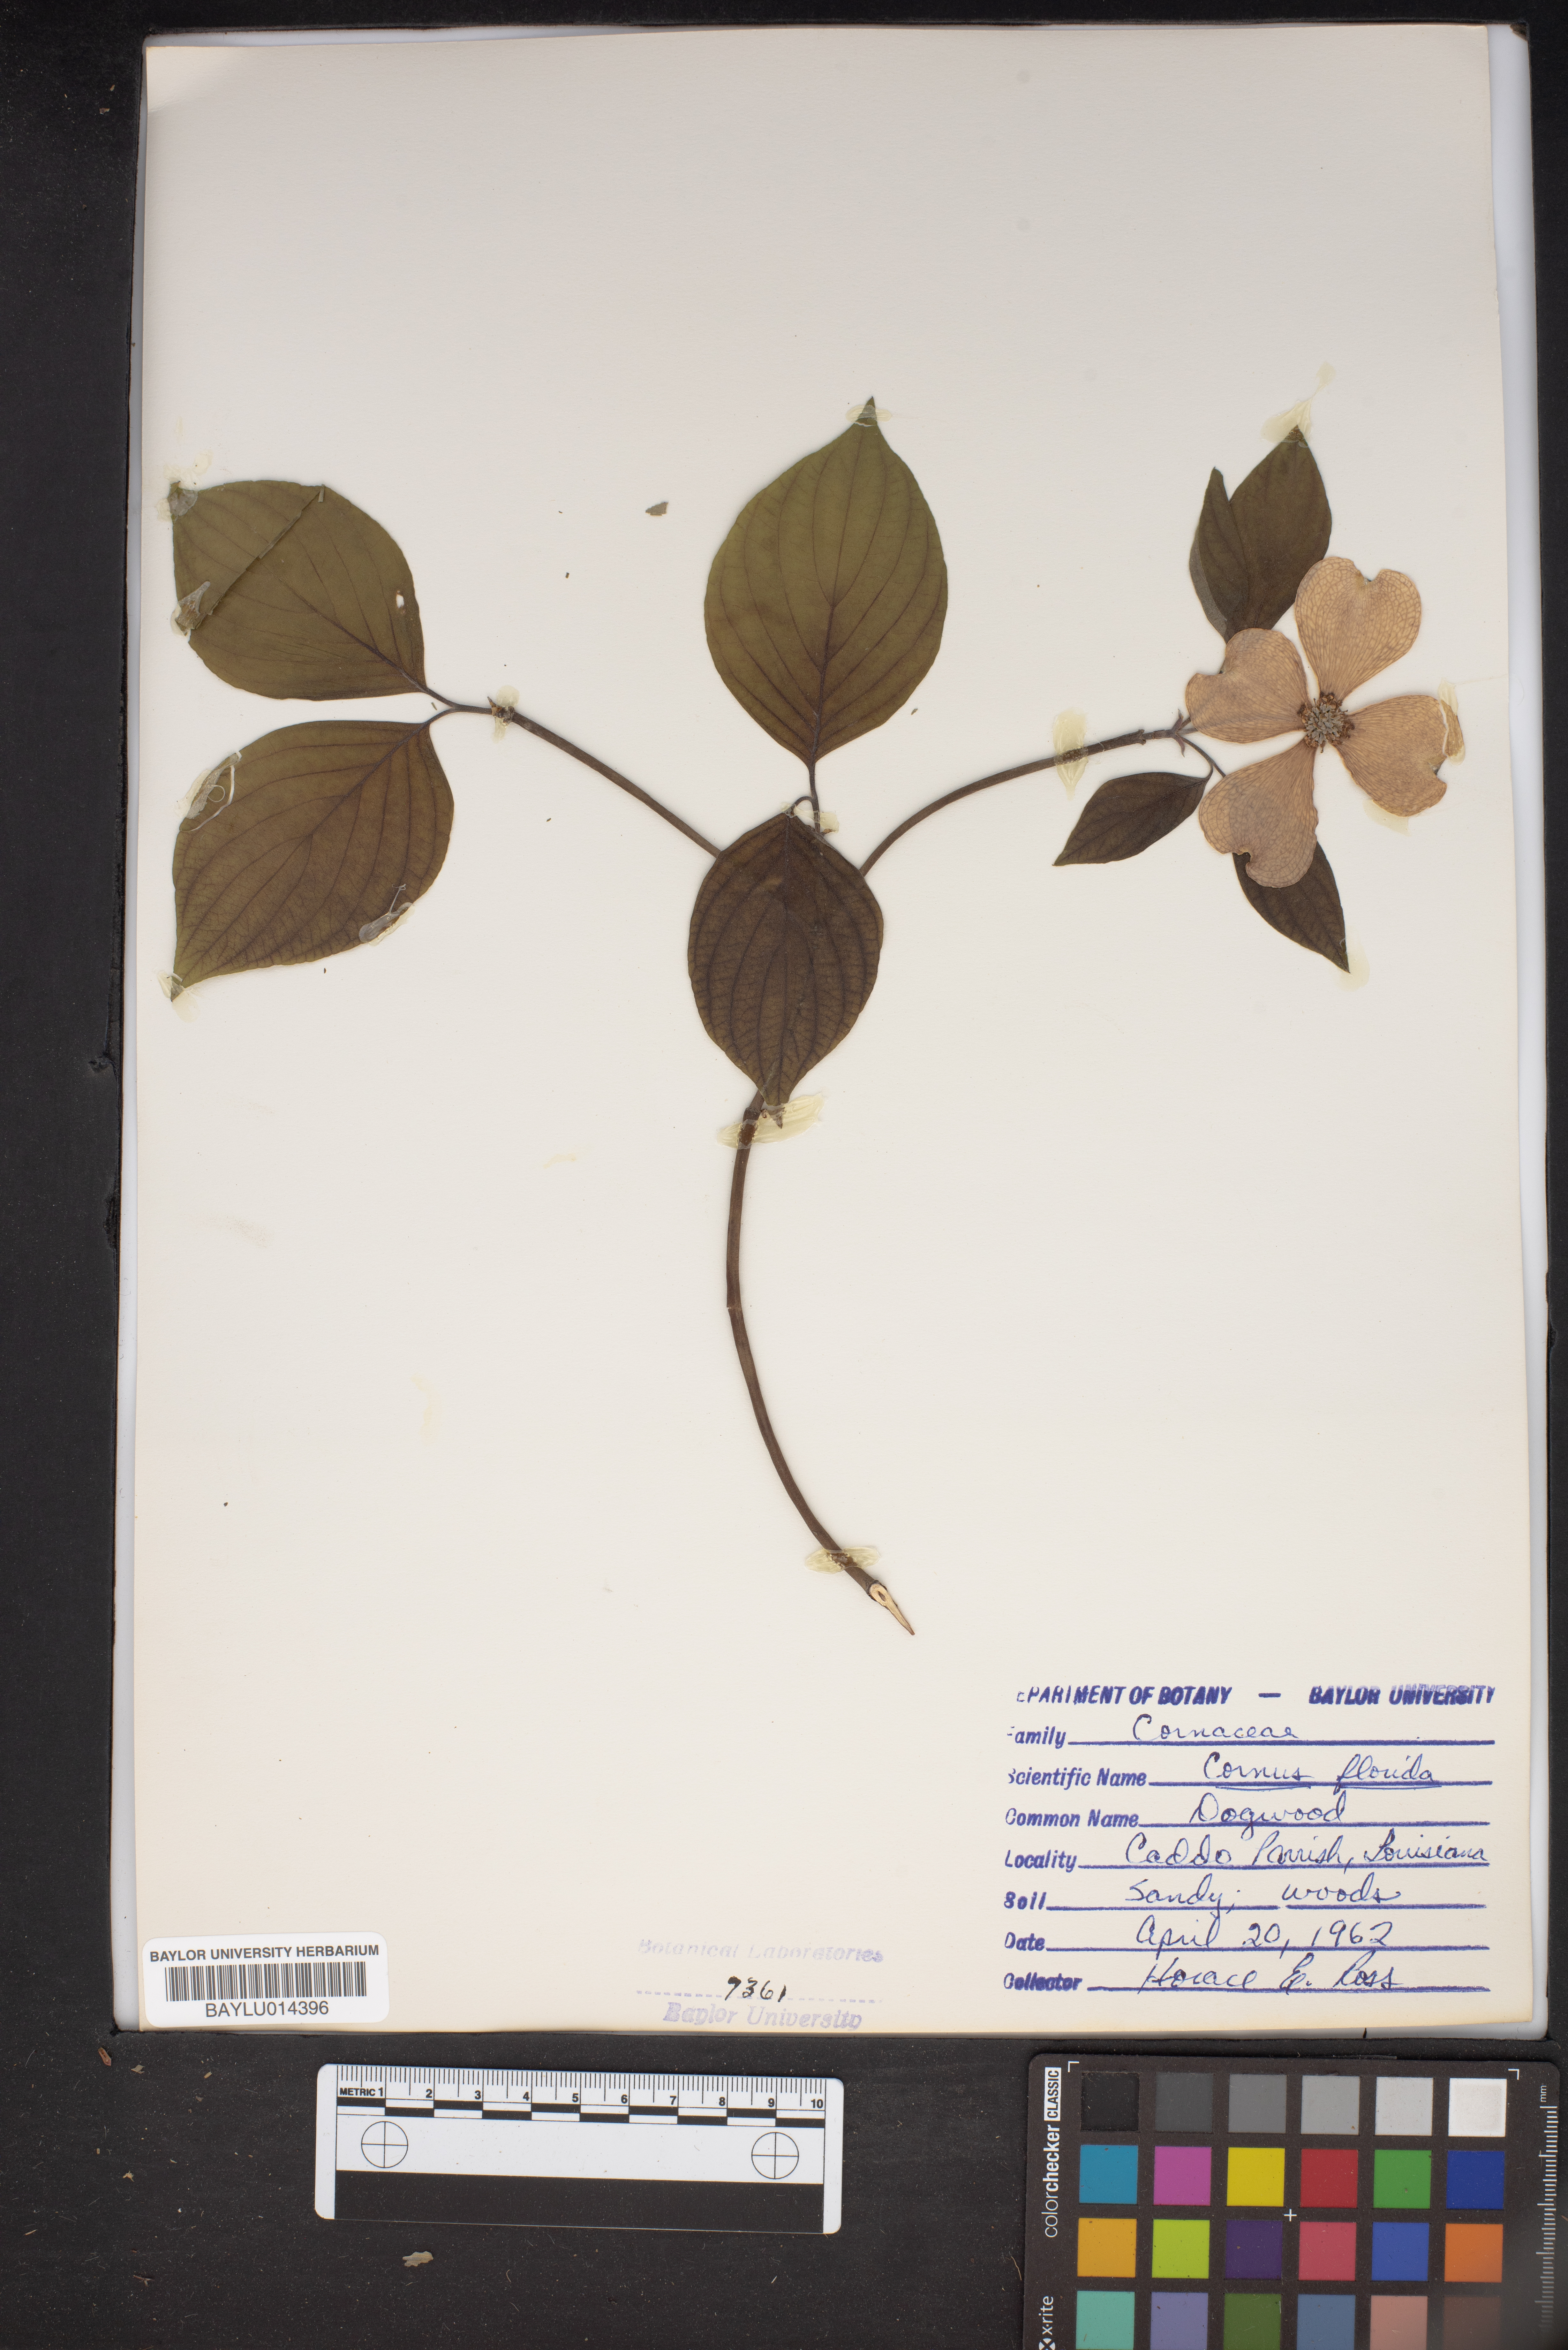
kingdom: Plantae
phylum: Tracheophyta
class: Magnoliopsida
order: Cornales
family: Cornaceae
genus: Cornus
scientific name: Cornus florida
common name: Flowering dogwood
